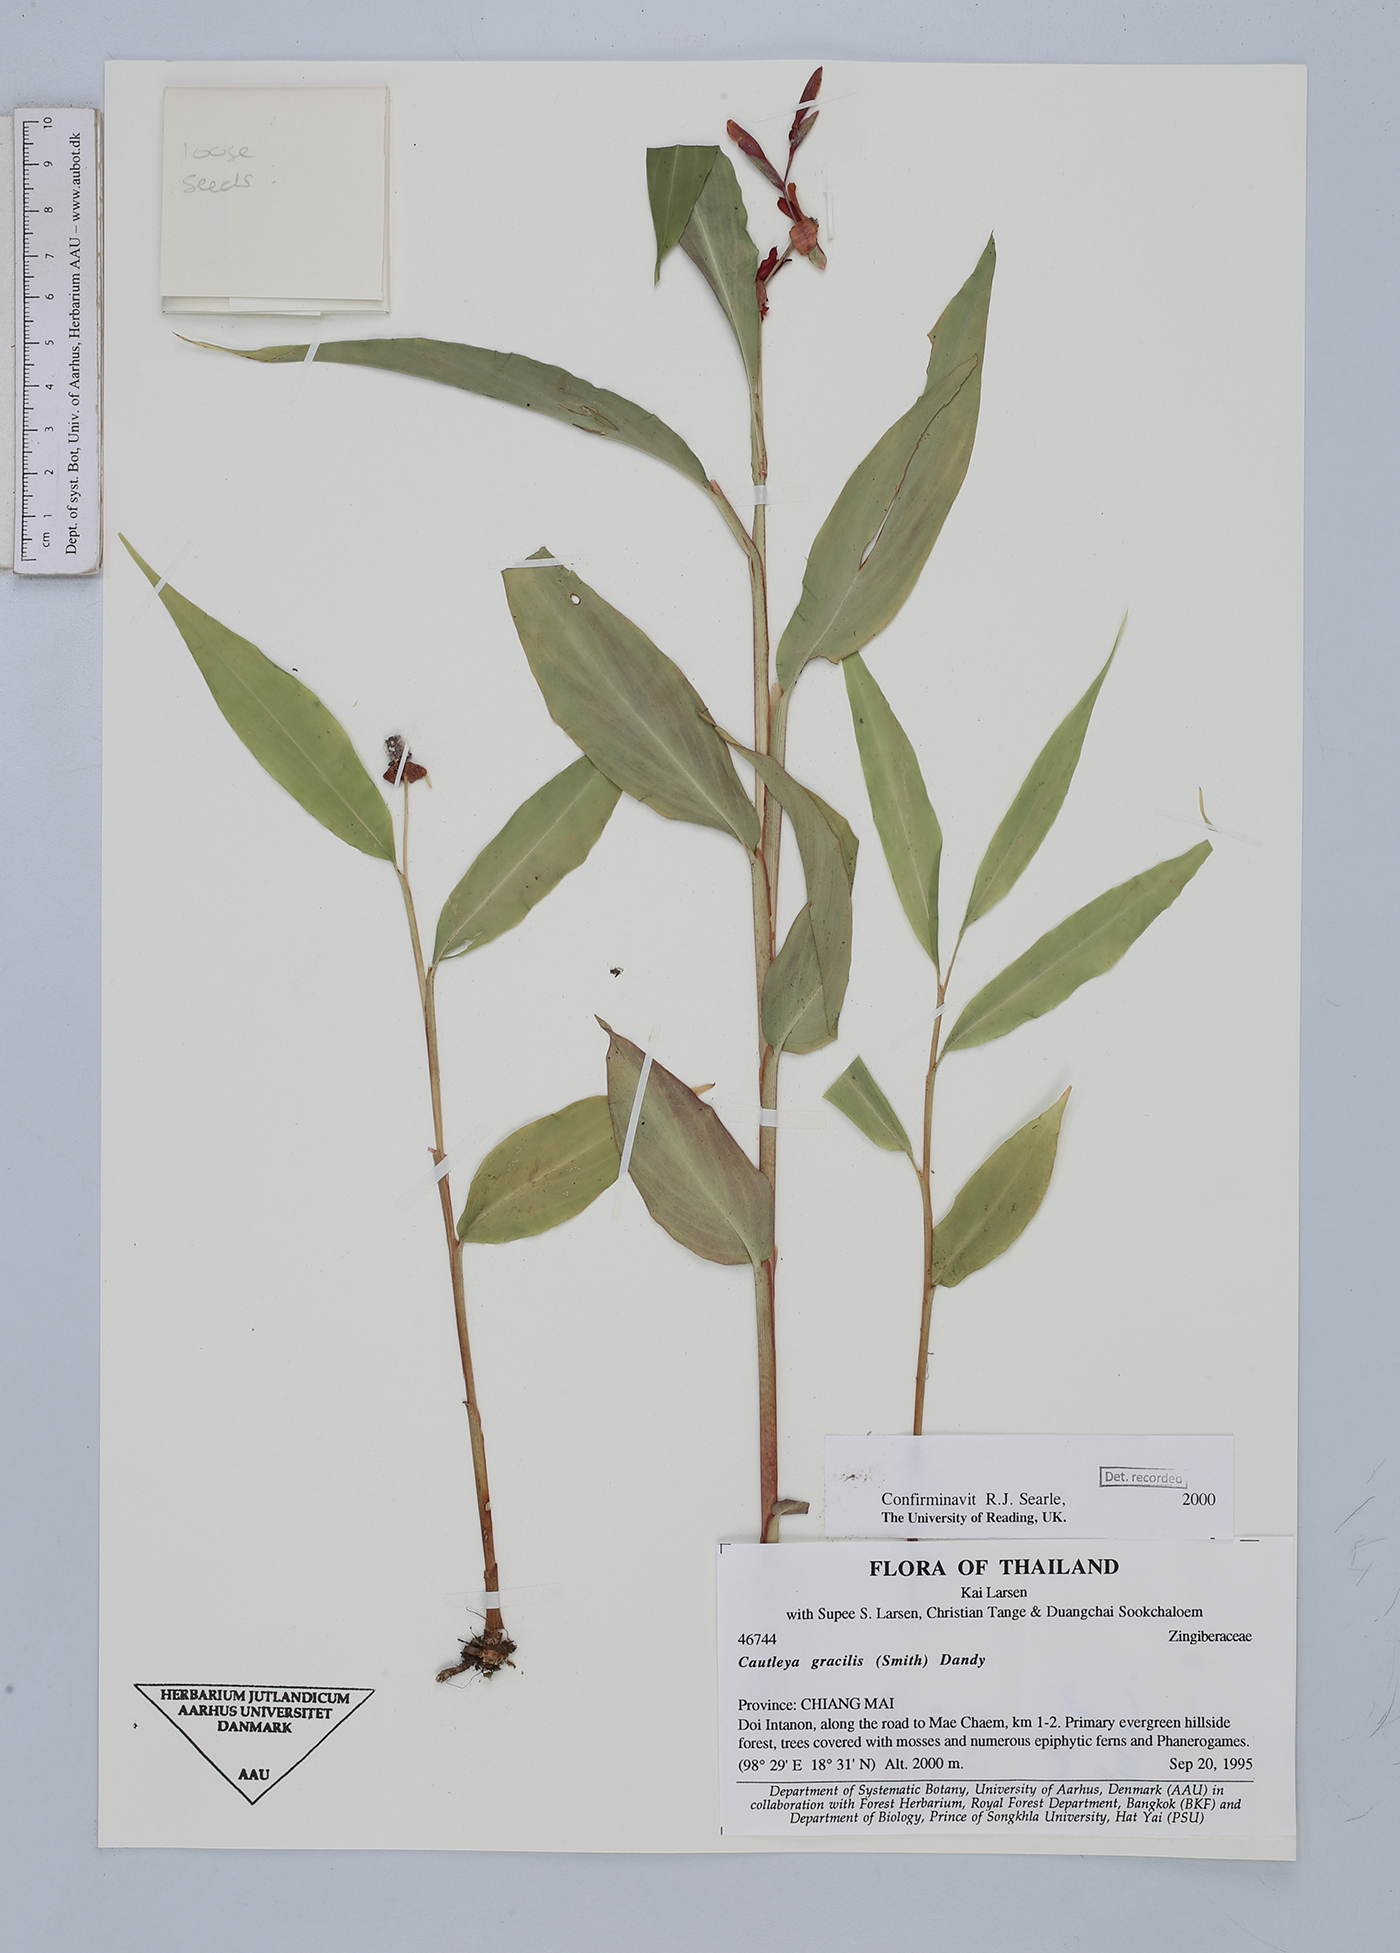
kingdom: Plantae
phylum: Tracheophyta
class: Liliopsida
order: Zingiberales
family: Zingiberaceae
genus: Cautleya
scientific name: Cautleya gracilis
